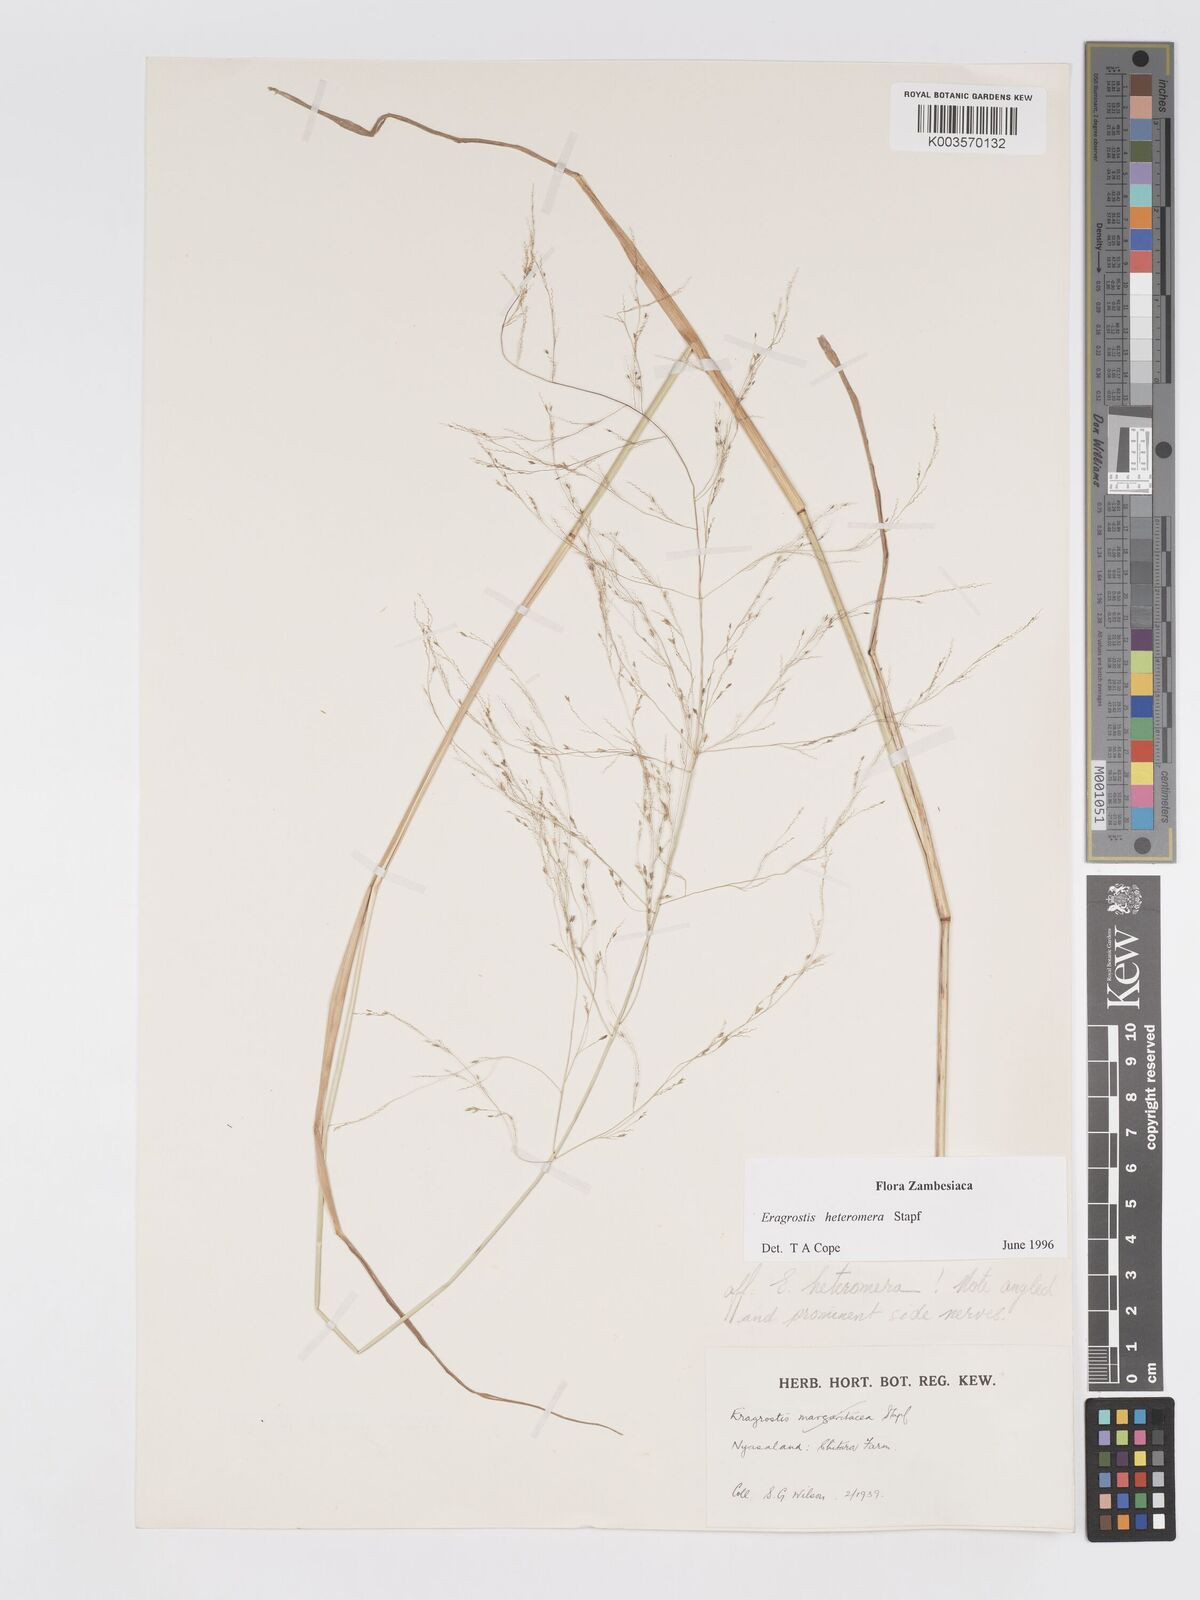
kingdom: Plantae
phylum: Tracheophyta
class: Liliopsida
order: Poales
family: Poaceae
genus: Eragrostis
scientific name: Eragrostis heteromera
